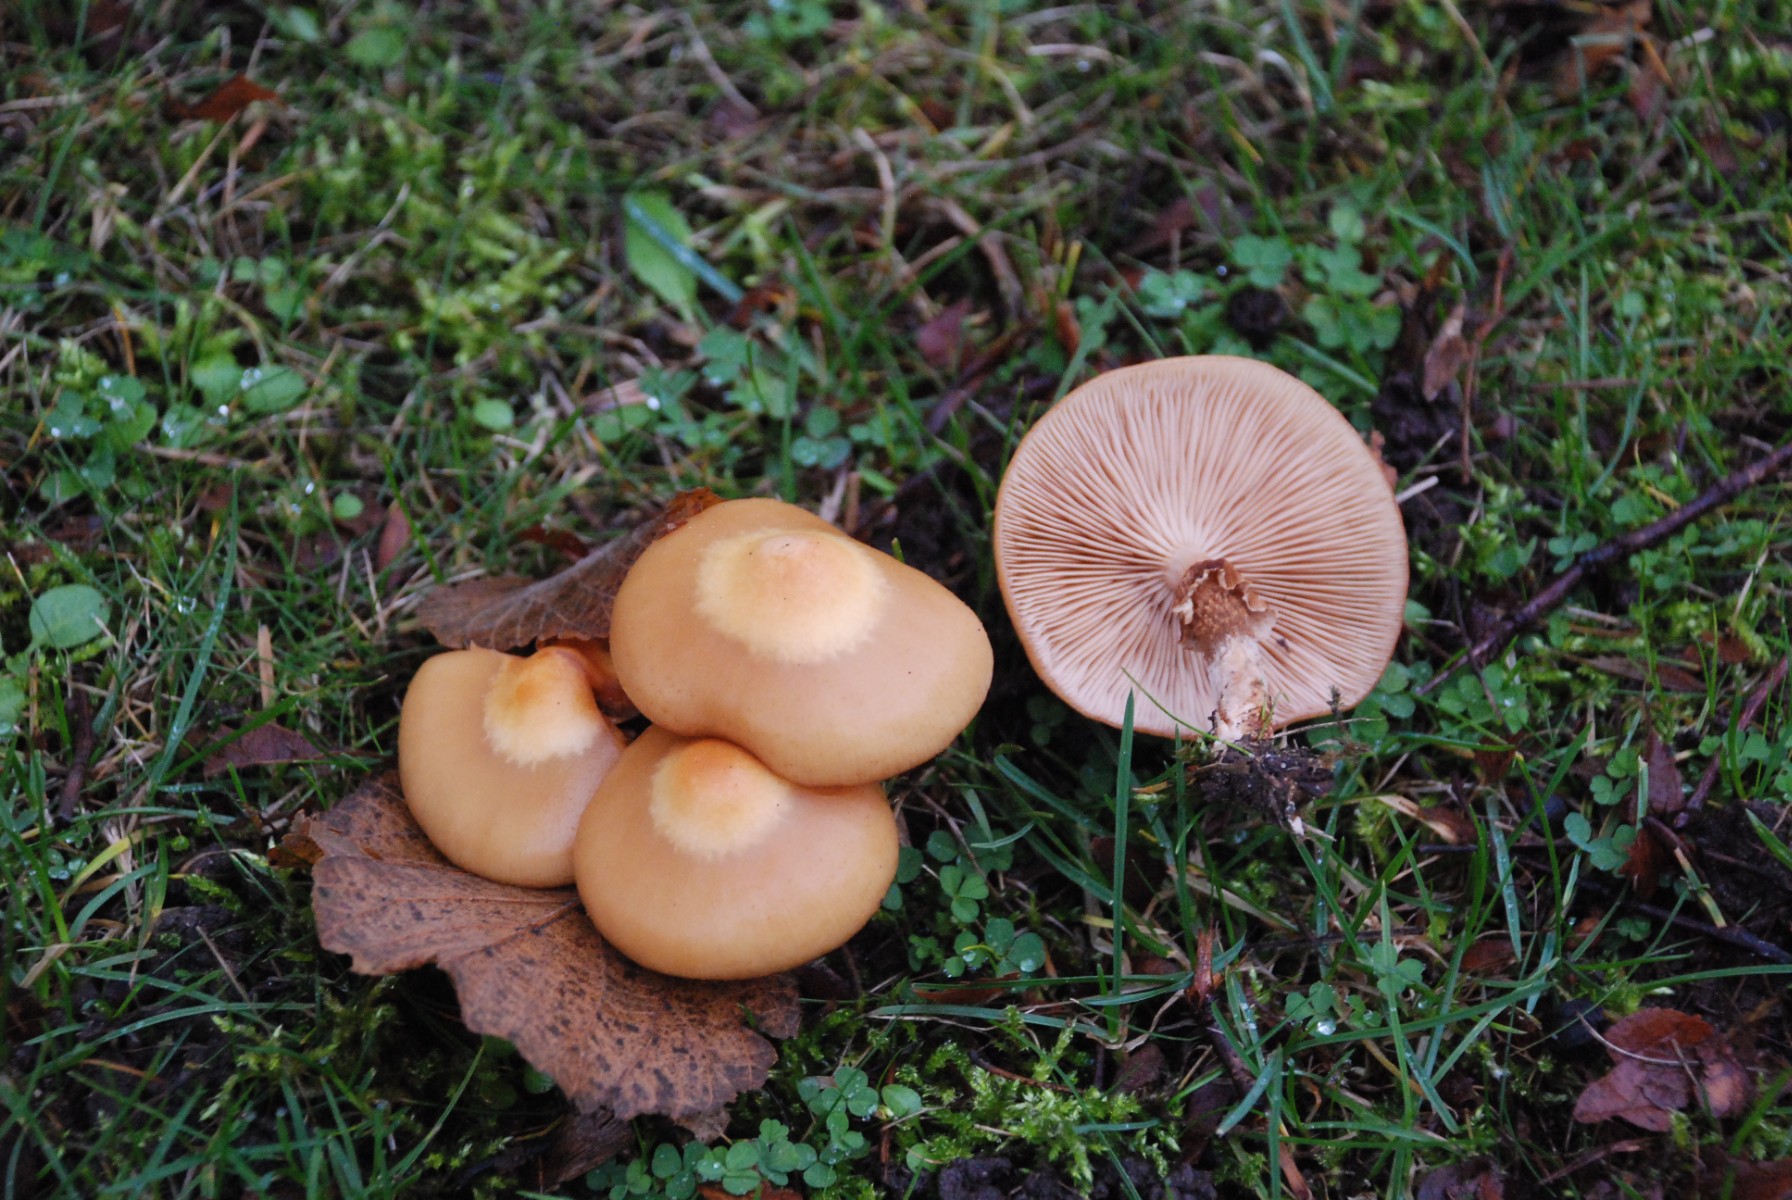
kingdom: Fungi
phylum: Basidiomycota
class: Agaricomycetes
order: Agaricales
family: Strophariaceae
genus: Kuehneromyces
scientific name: Kuehneromyces mutabilis
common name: foranderlig skælhat
